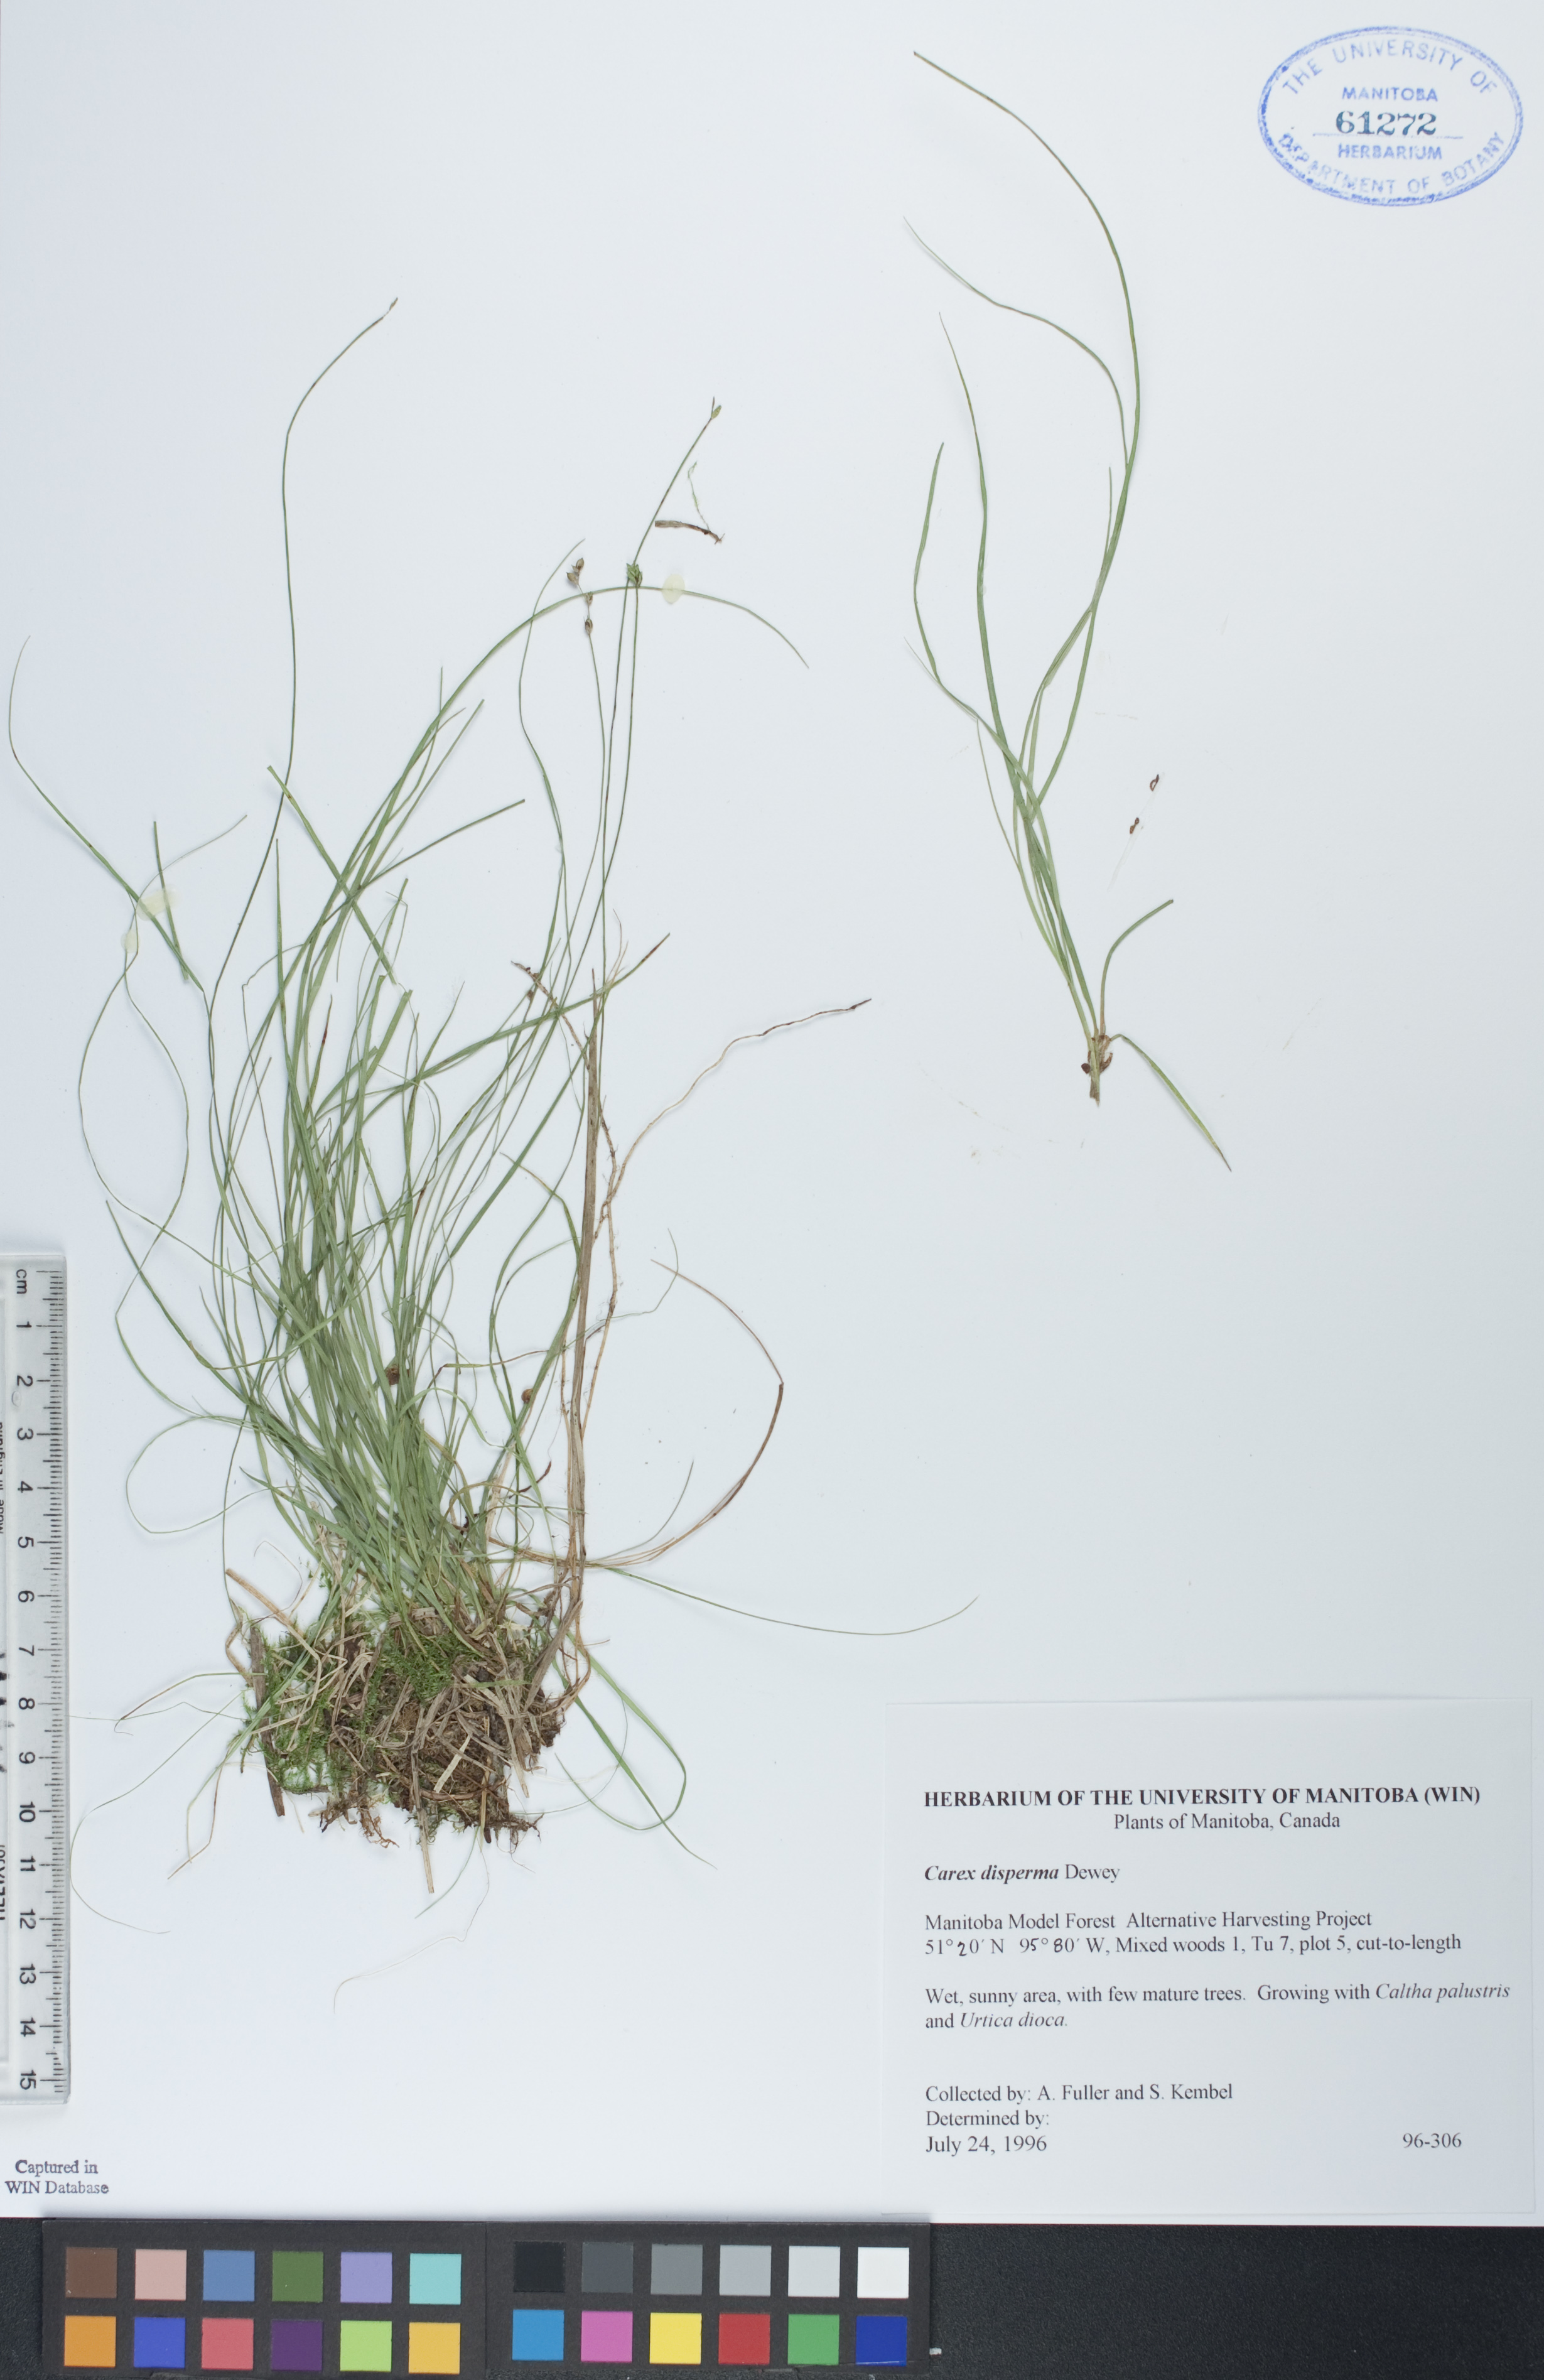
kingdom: Plantae
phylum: Tracheophyta
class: Liliopsida
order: Poales
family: Cyperaceae
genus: Carex
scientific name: Carex disperma
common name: Short-leaved sedge
